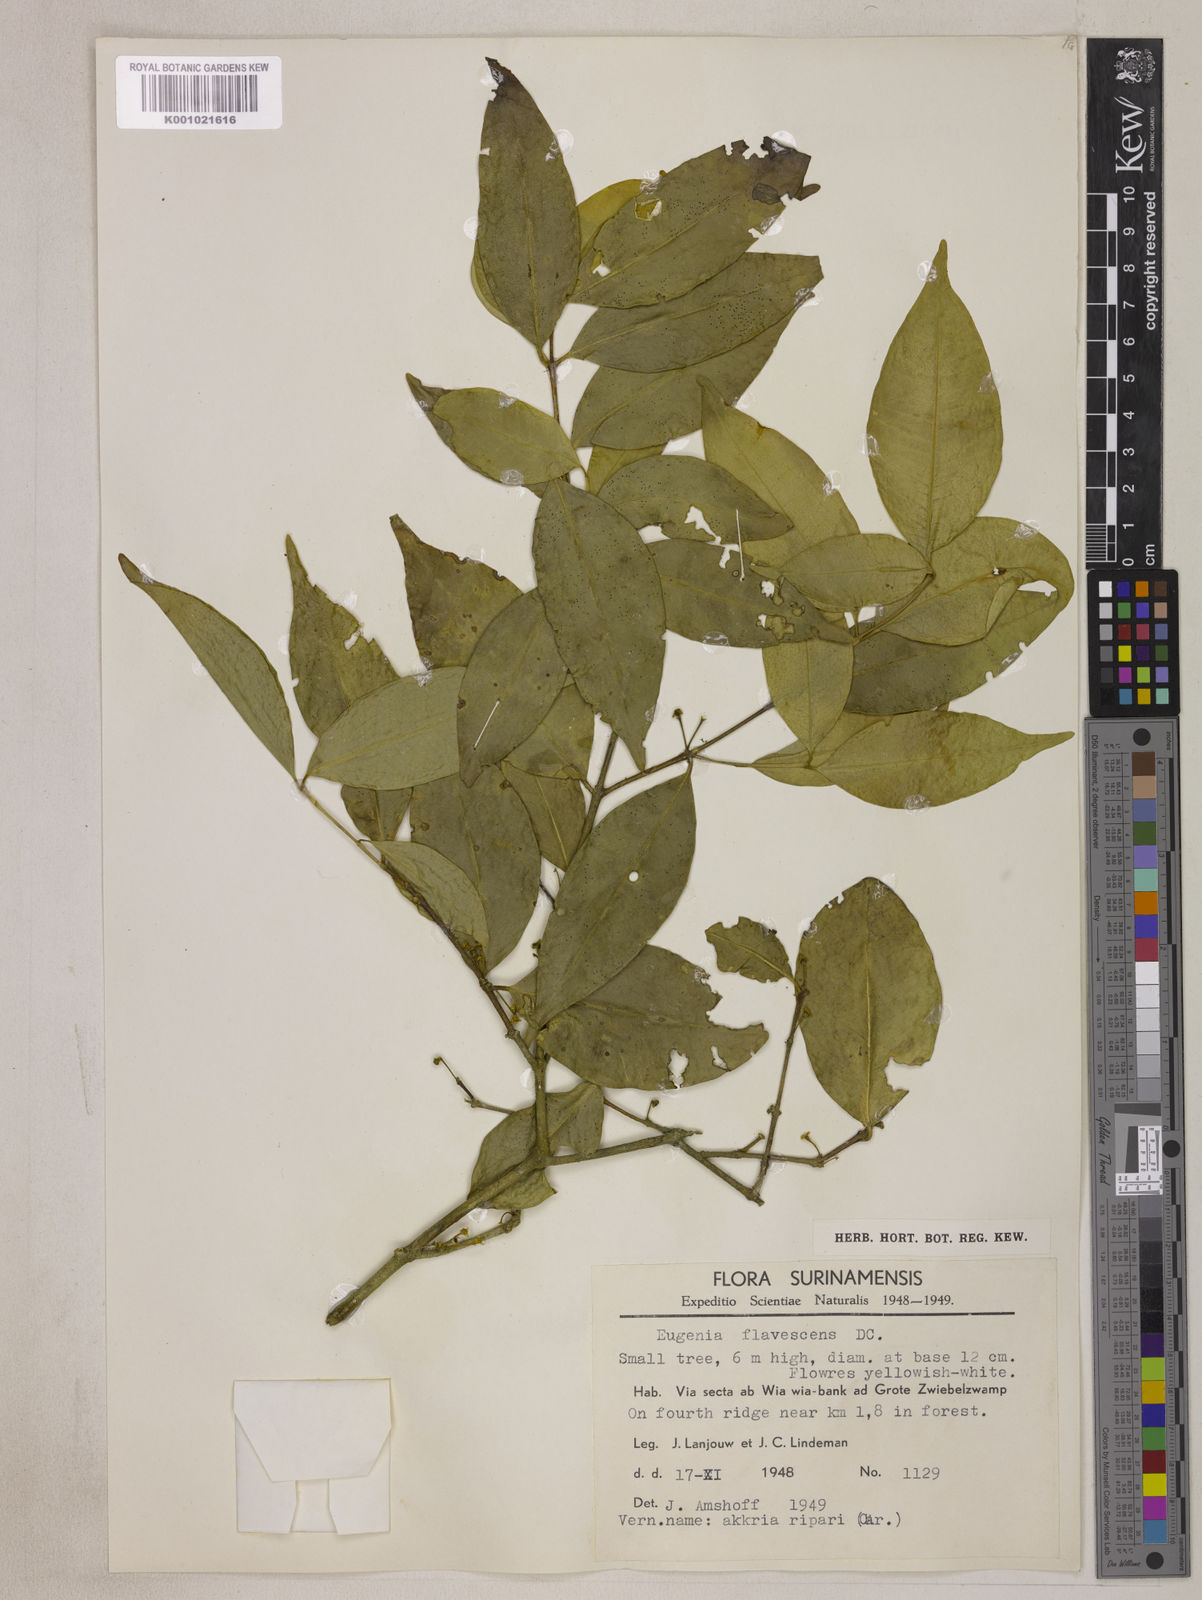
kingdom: Plantae
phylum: Tracheophyta
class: Magnoliopsida
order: Myrtales
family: Myrtaceae
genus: Eugenia
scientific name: Eugenia sonderiana
